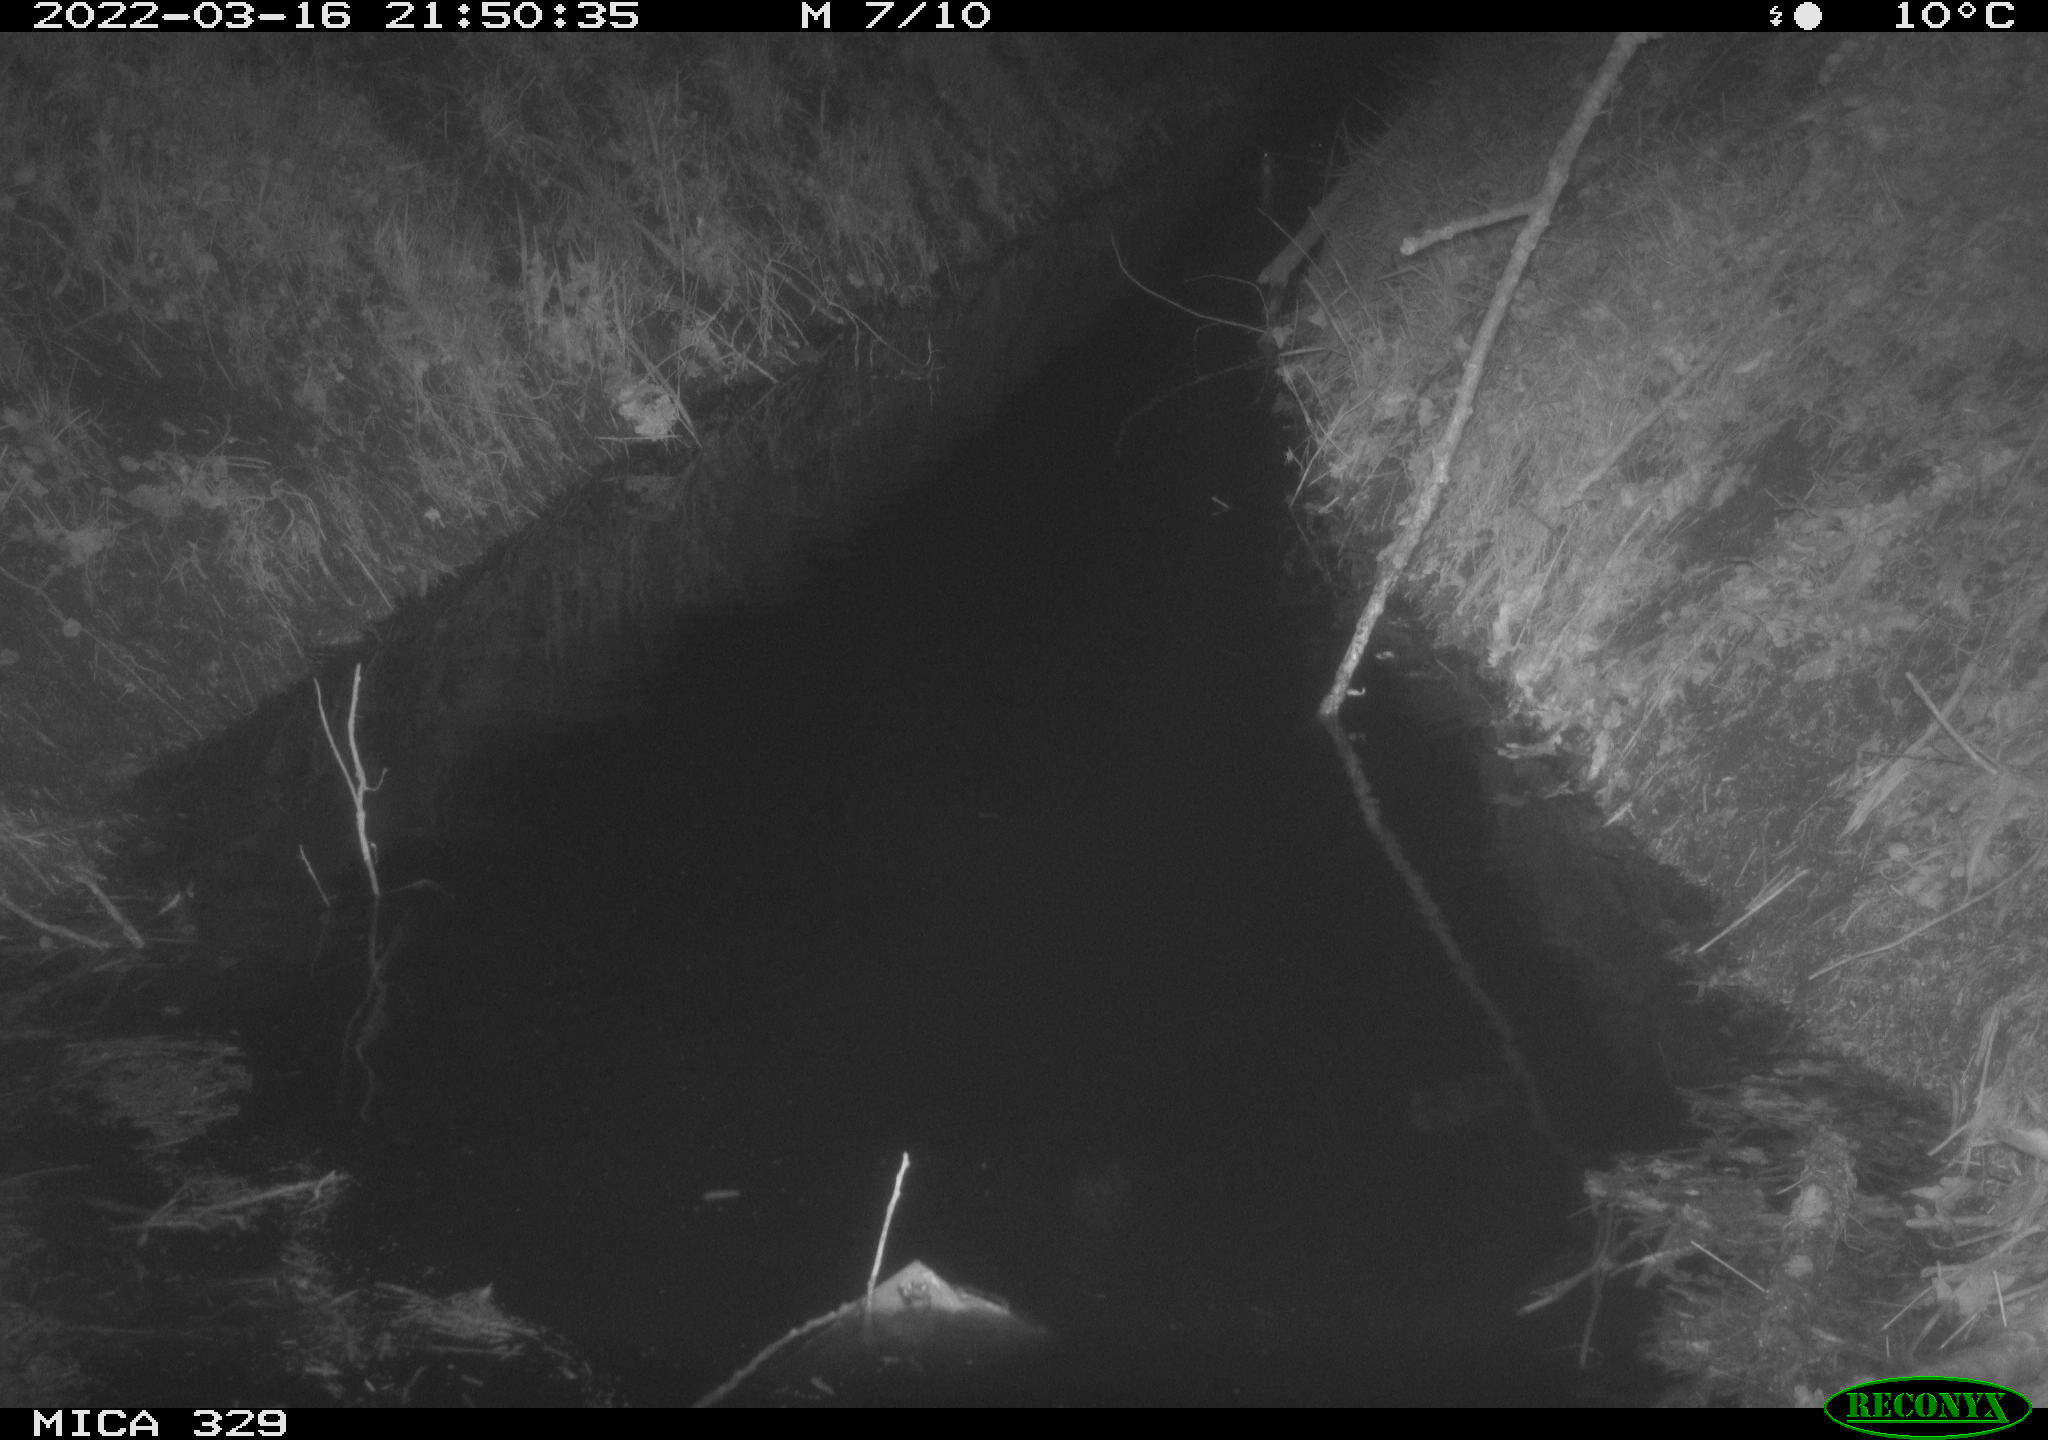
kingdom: Animalia
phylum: Chordata
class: Mammalia
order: Rodentia
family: Cricetidae
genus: Ondatra
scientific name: Ondatra zibethicus
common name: Muskrat
